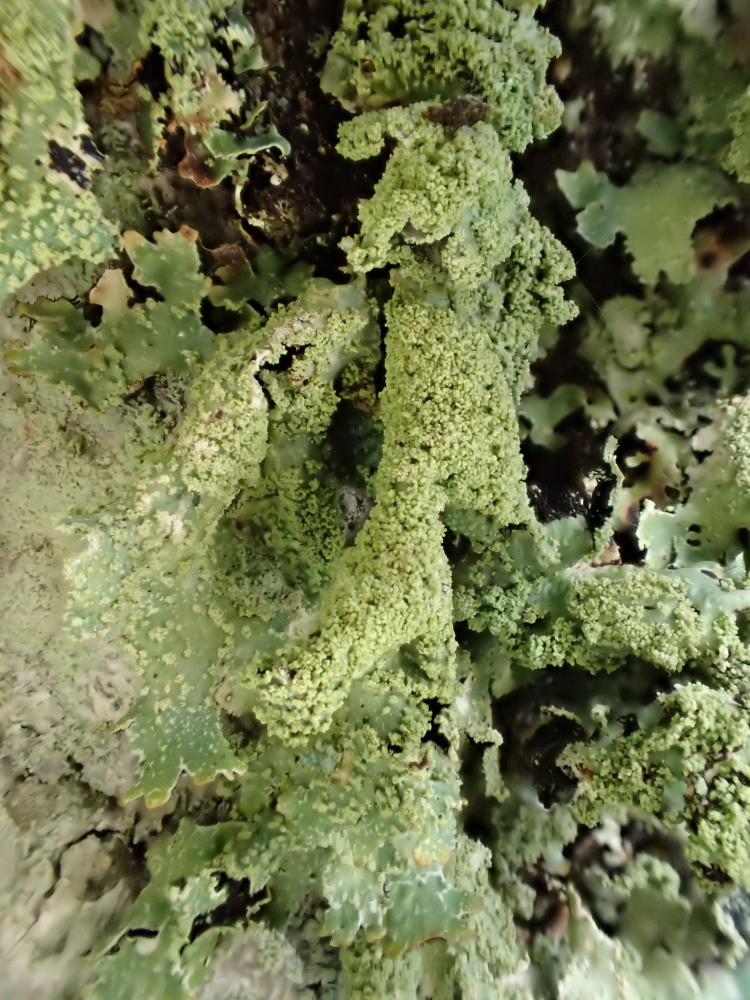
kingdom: Fungi
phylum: Ascomycota
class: Lecanoromycetes
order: Lecanorales
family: Parmeliaceae
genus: Parmelia
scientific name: Parmelia submontana
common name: langlobet skållav
